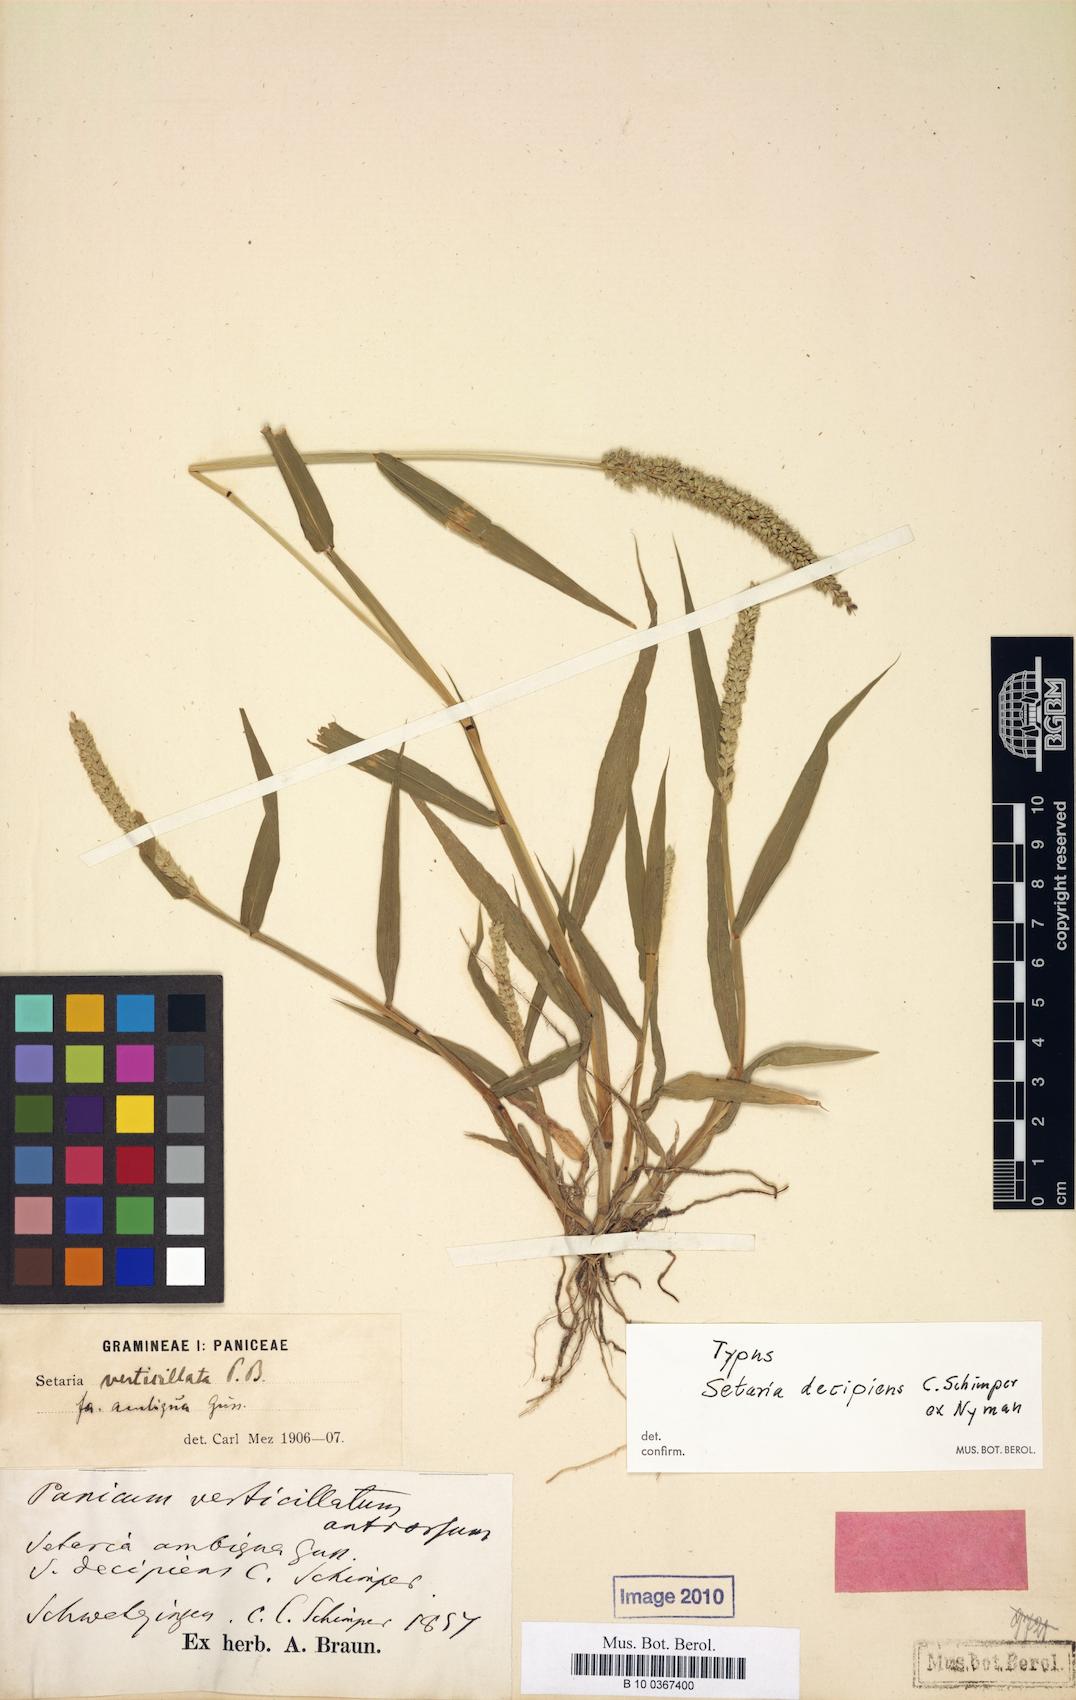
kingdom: Plantae
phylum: Tracheophyta
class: Liliopsida
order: Poales
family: Poaceae
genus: Setaria
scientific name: Setaria verticillata
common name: Hooked bristlegrass
